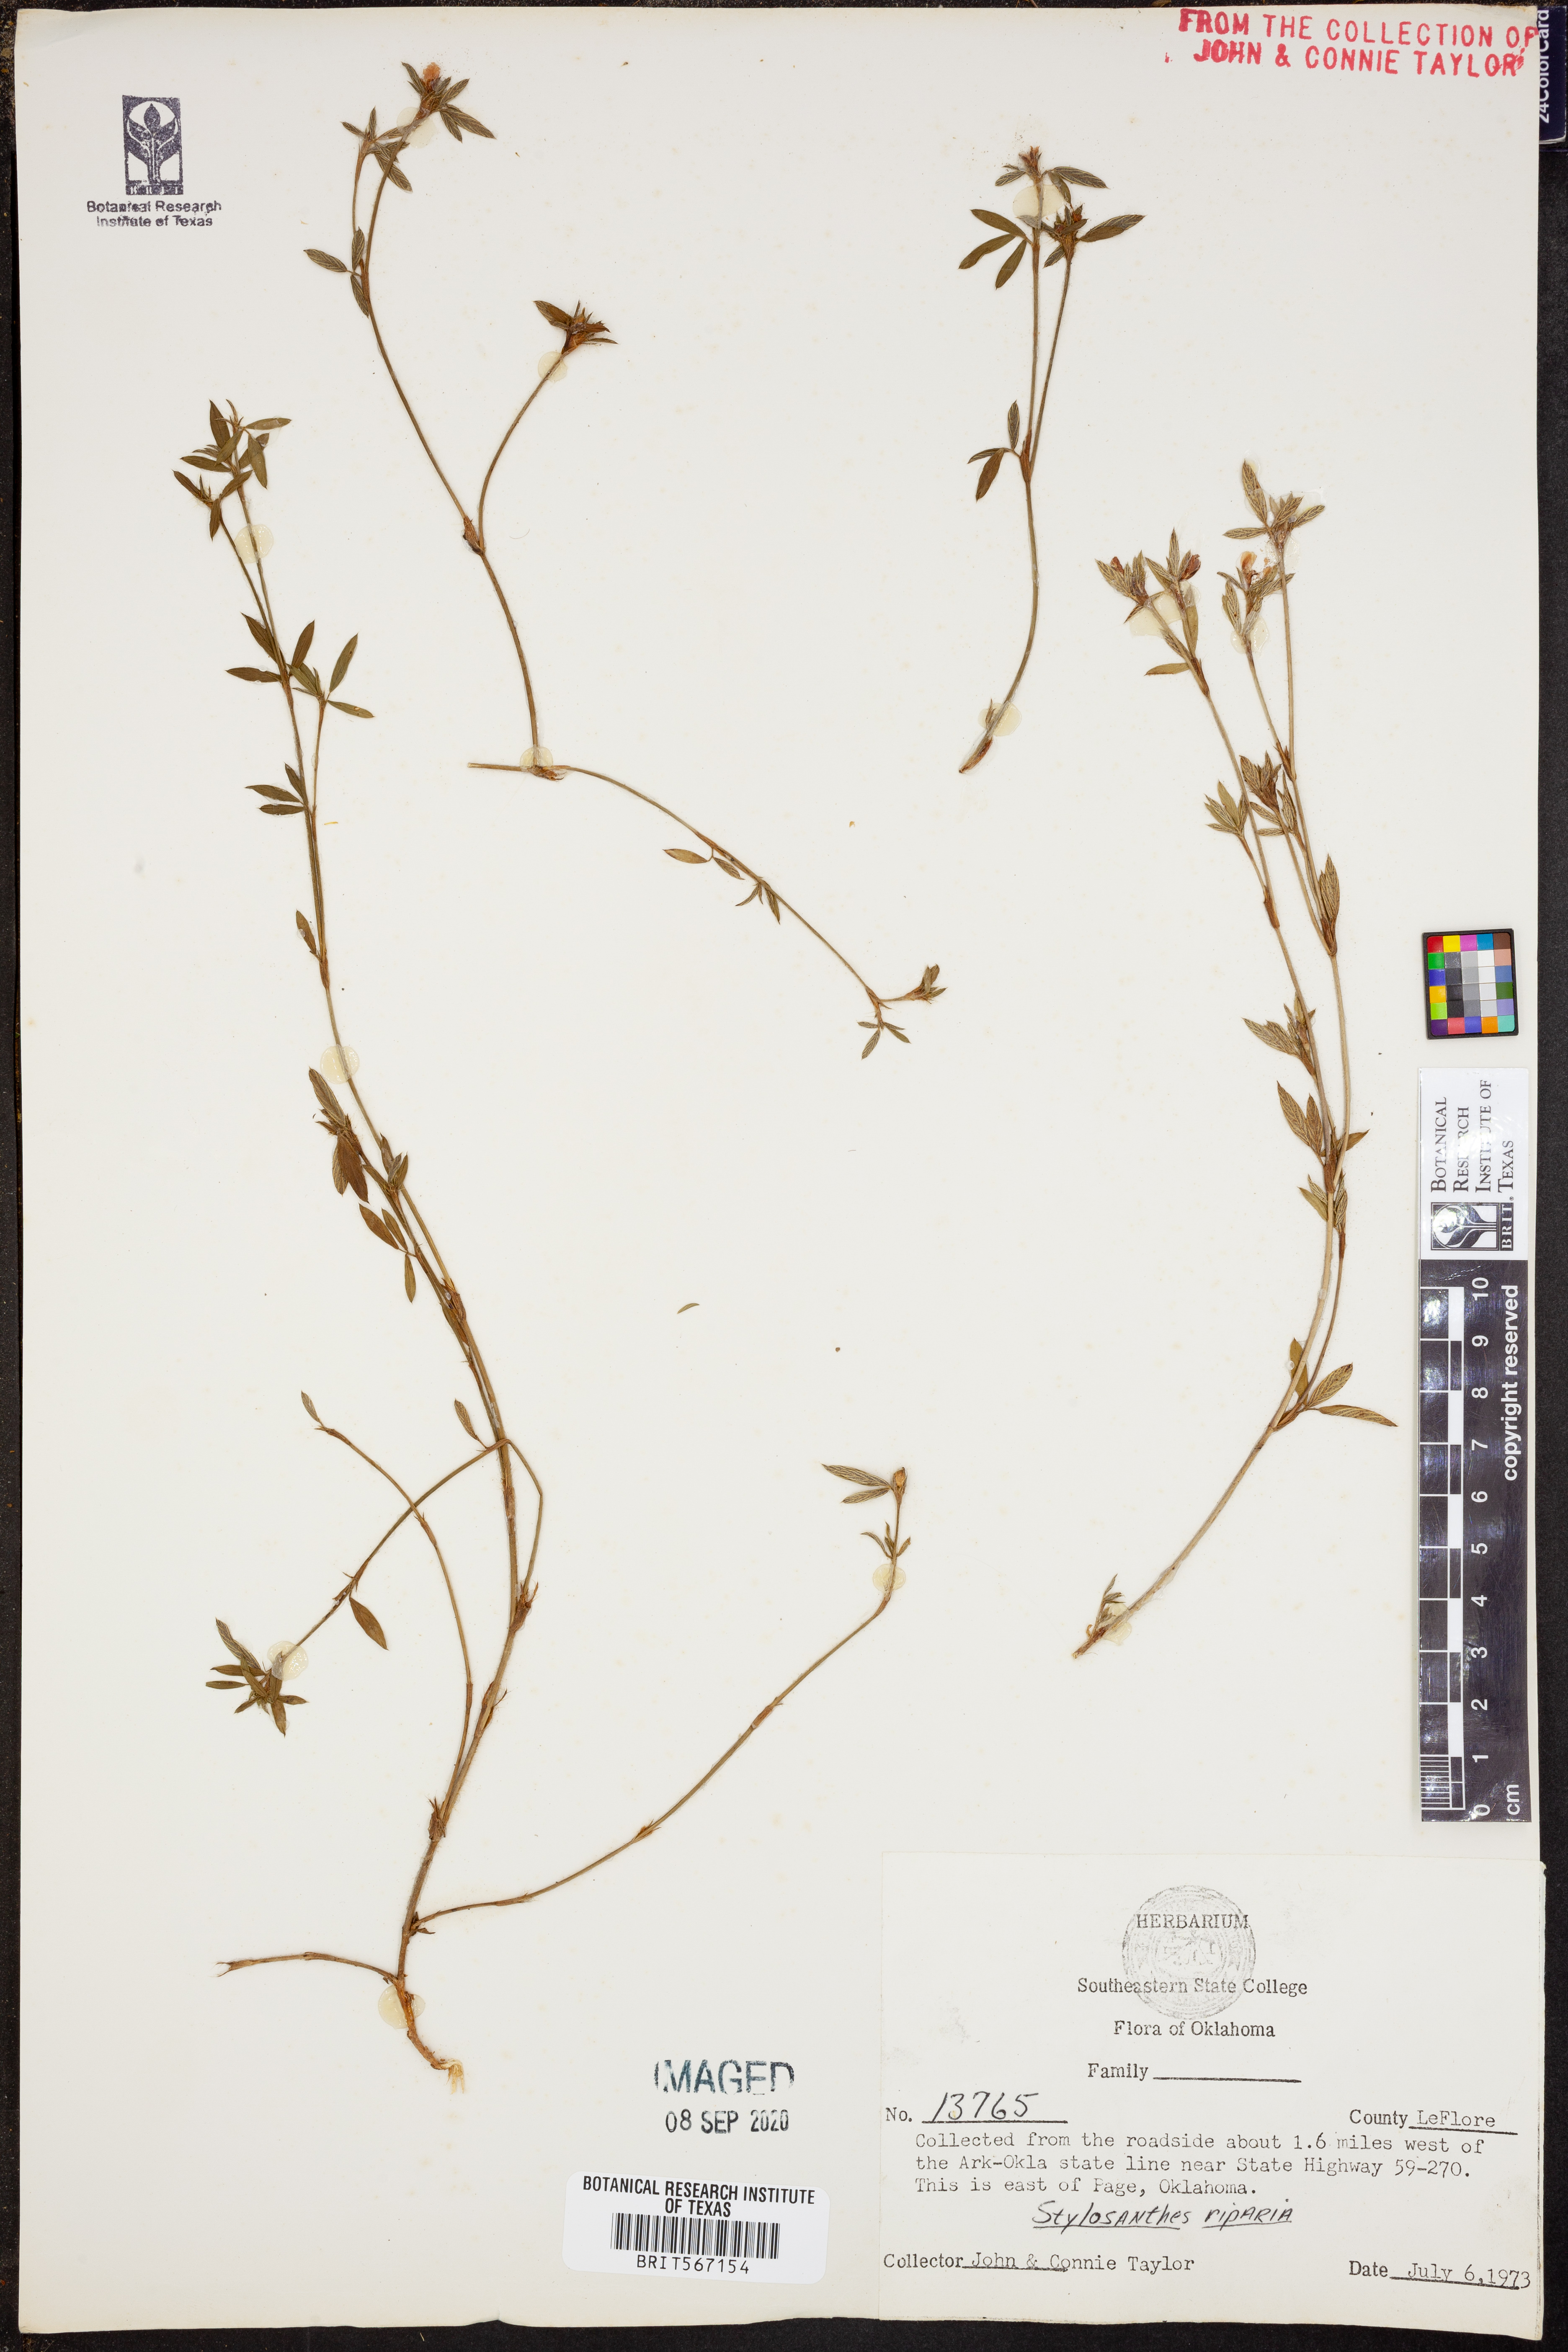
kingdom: Plantae
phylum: Tracheophyta
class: Magnoliopsida
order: Fabales
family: Fabaceae
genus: Stylosanthes
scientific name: Stylosanthes biflora
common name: Two-flower pencil-flower
